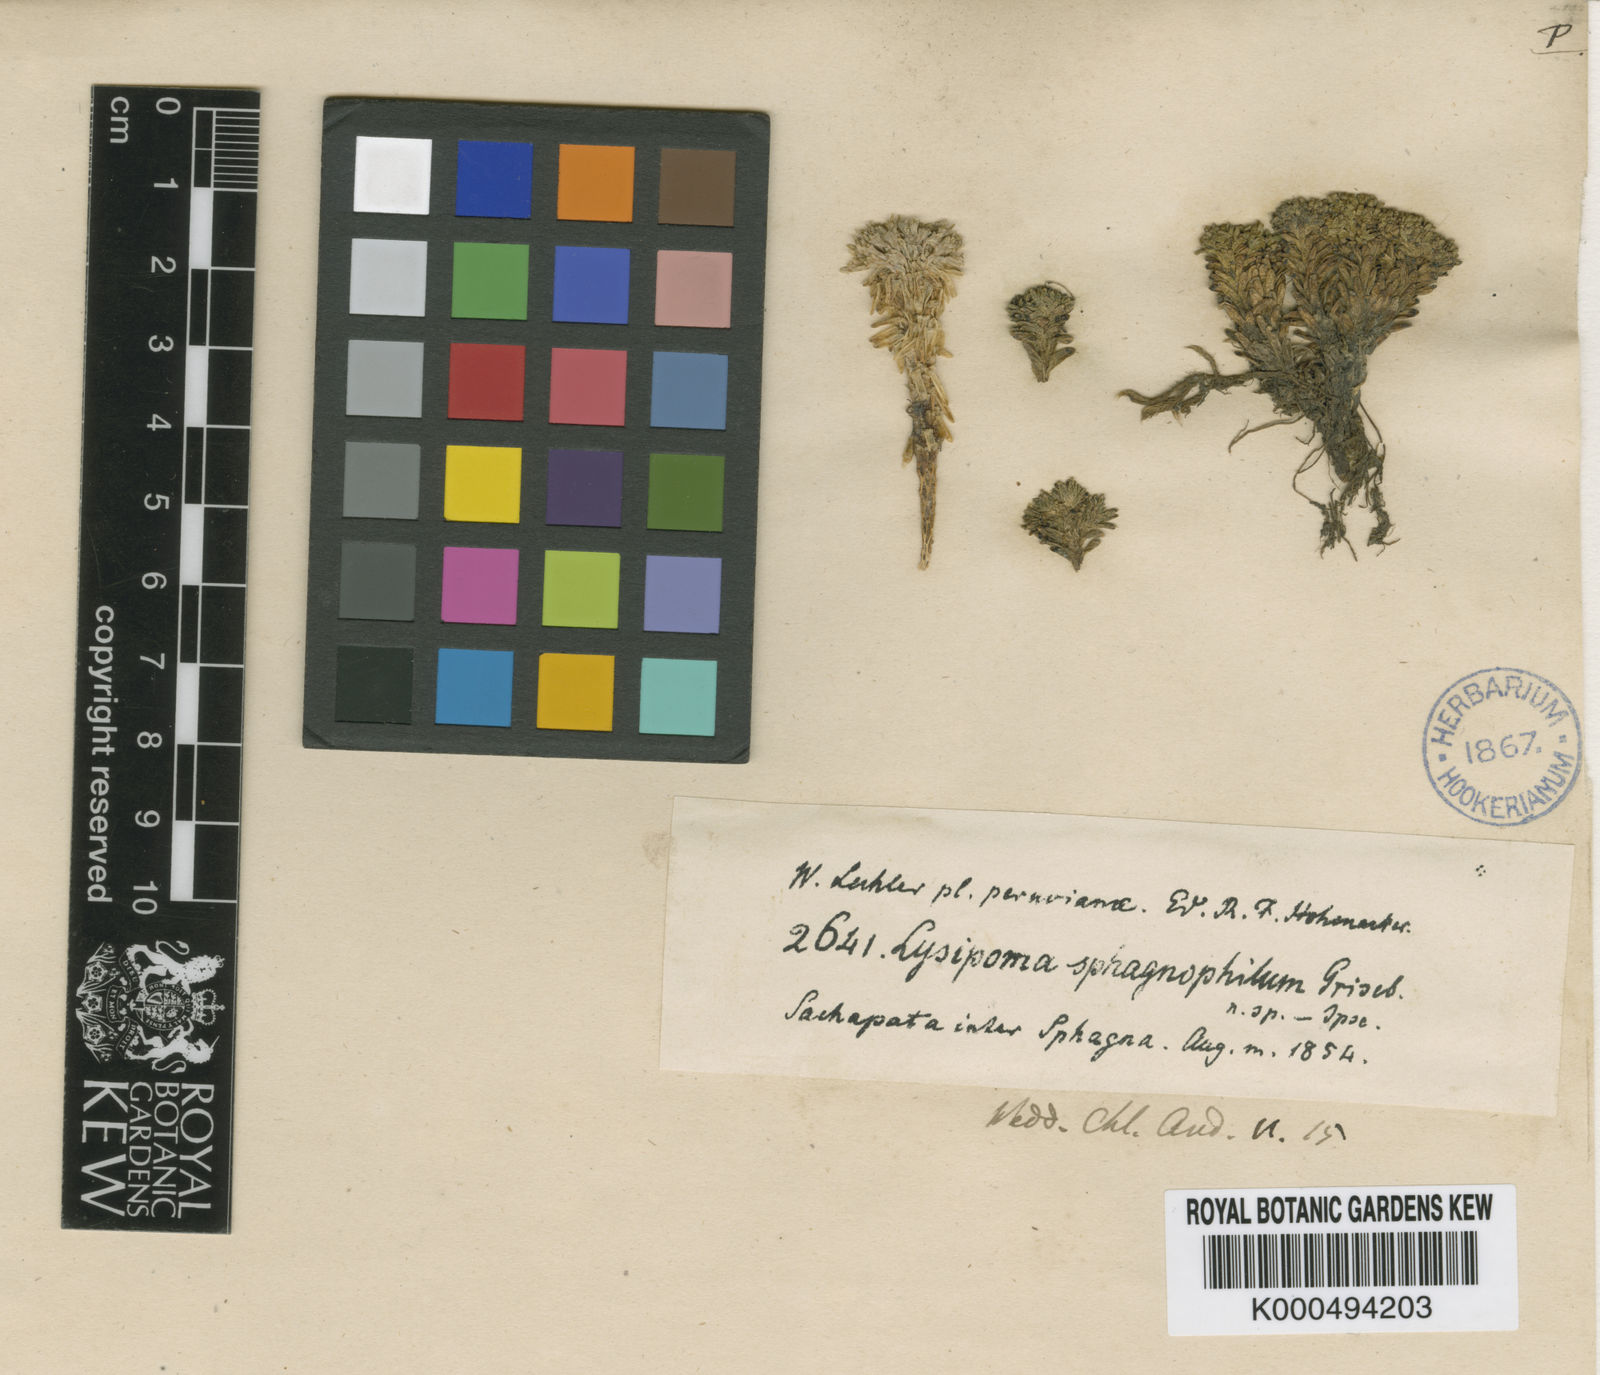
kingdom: Plantae
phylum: Tracheophyta
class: Magnoliopsida
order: Asterales
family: Campanulaceae
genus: Lysipomia
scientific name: Lysipomia sphagnophila
